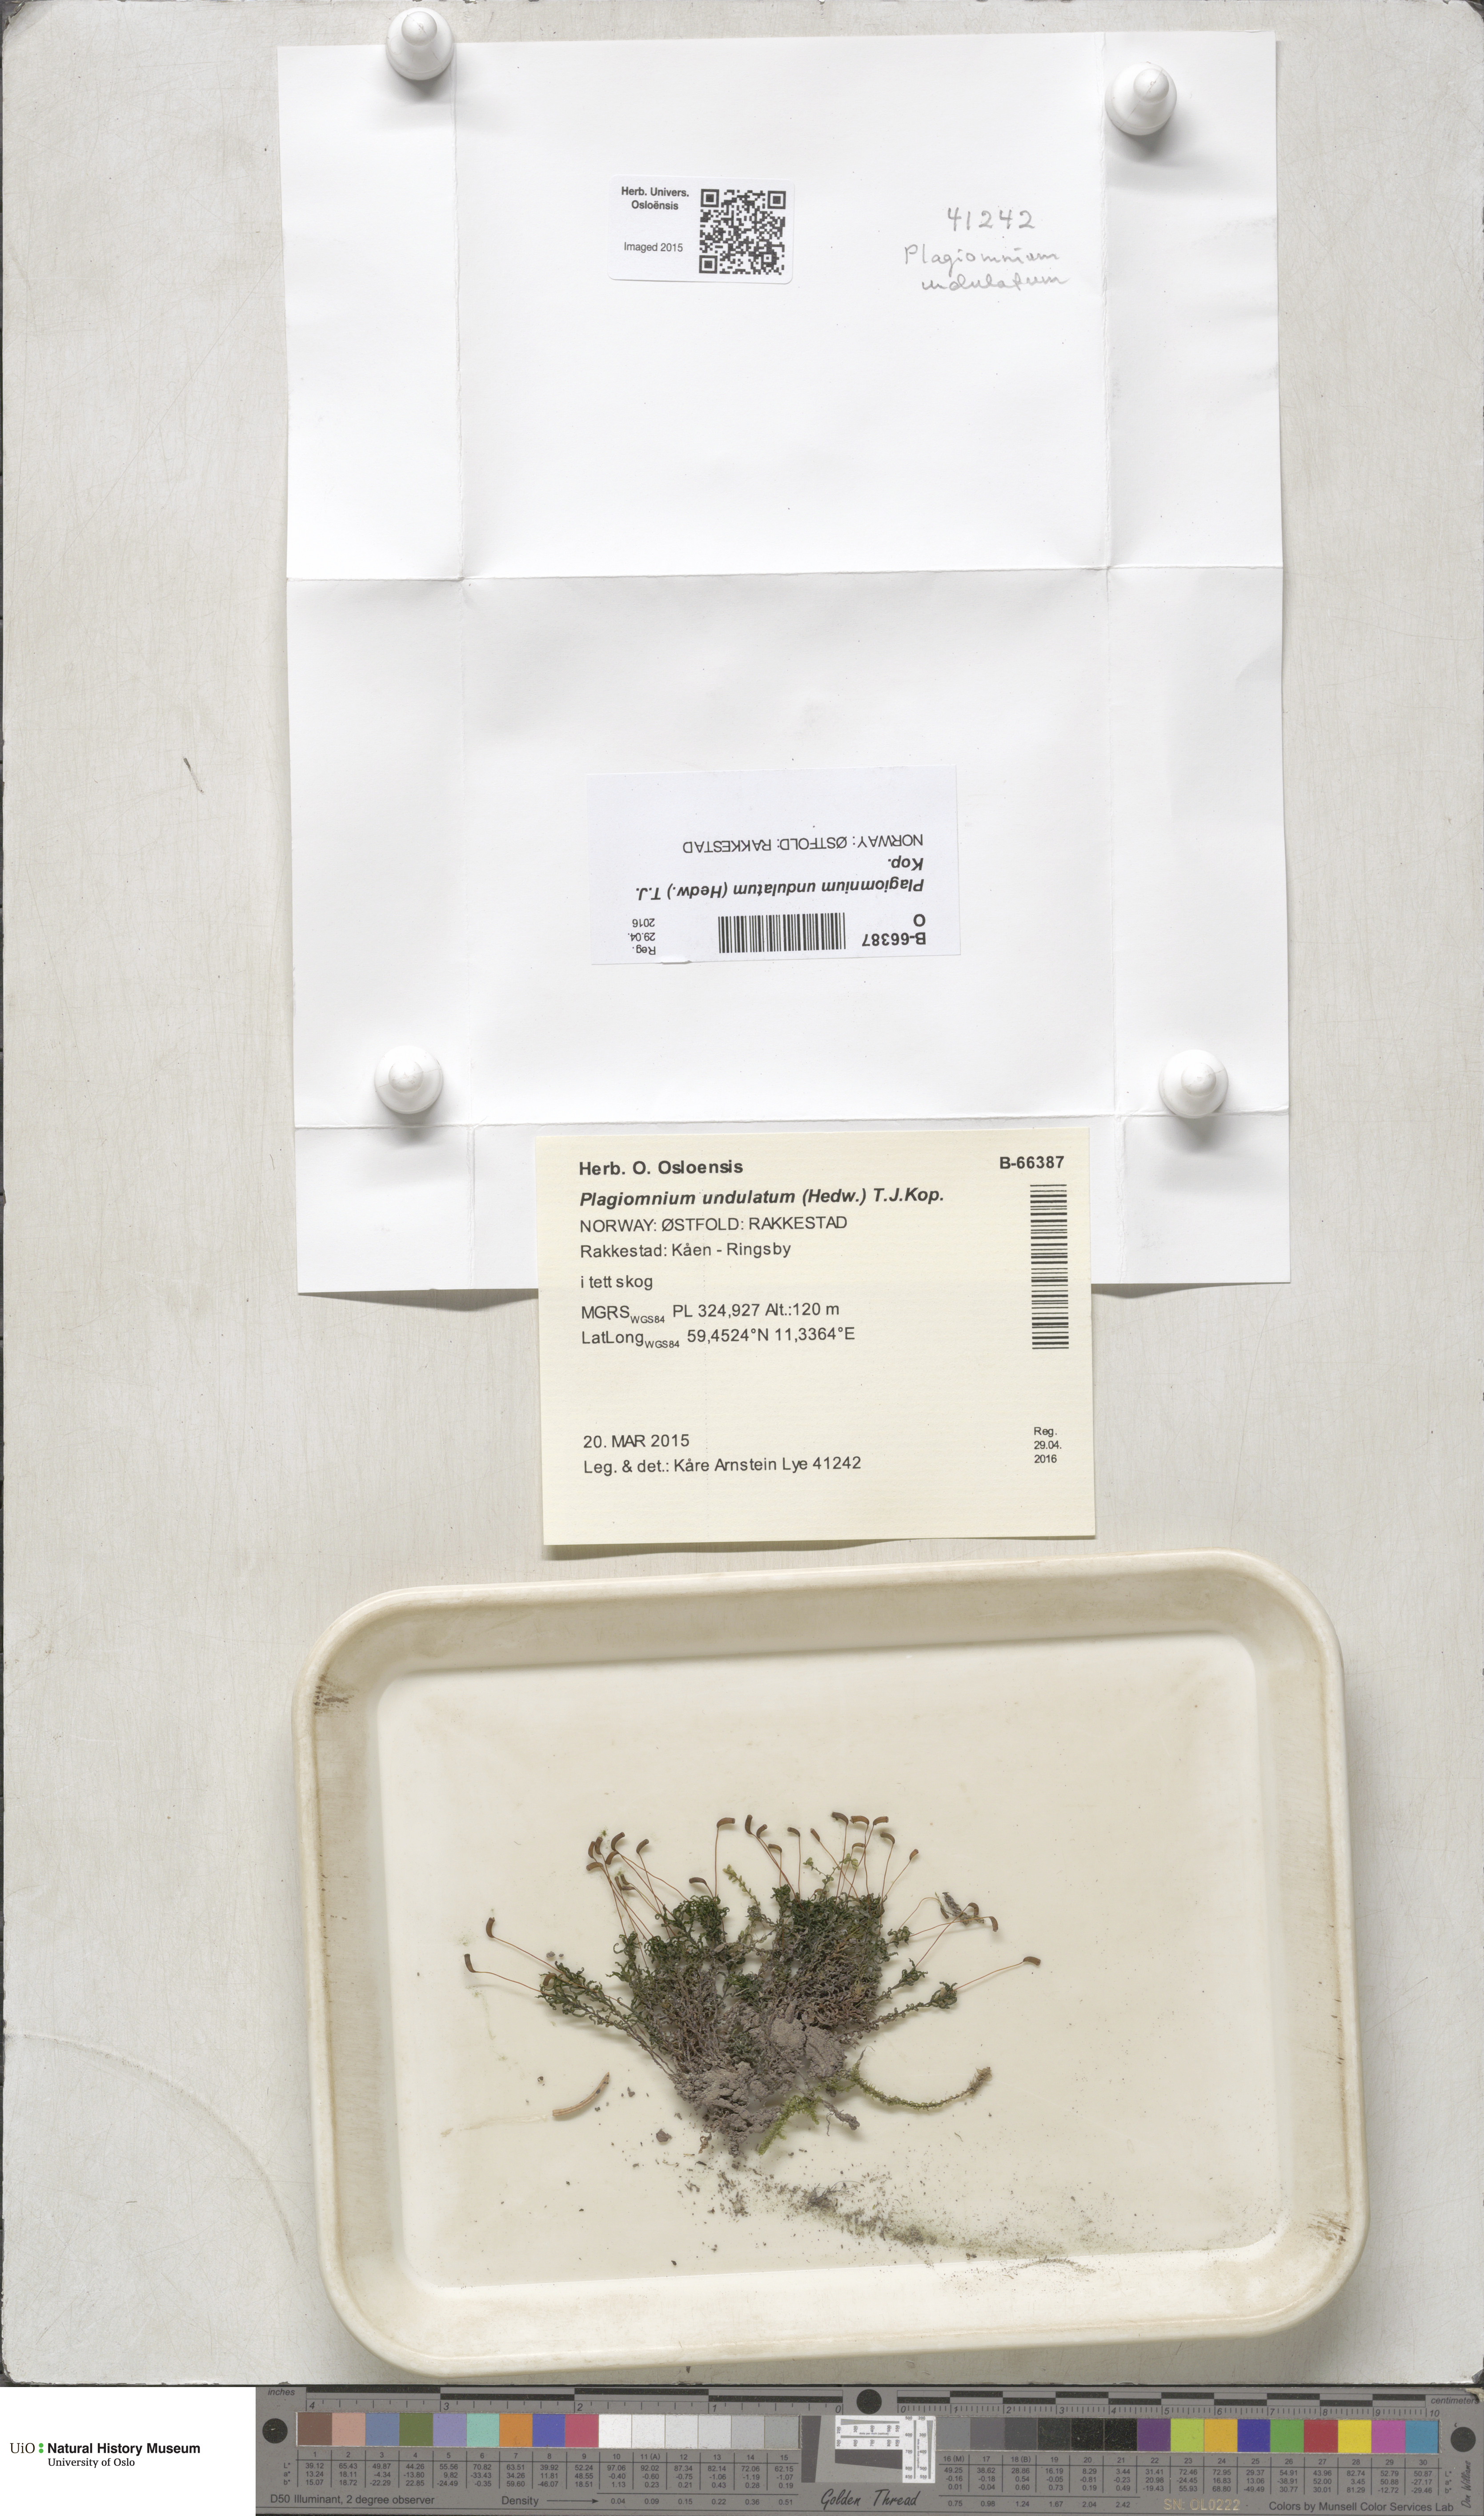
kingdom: Plantae
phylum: Bryophyta
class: Bryopsida
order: Bryales
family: Mniaceae
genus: Plagiomnium
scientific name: Plagiomnium undulatum
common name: Hart's-tongue thyme-moss
